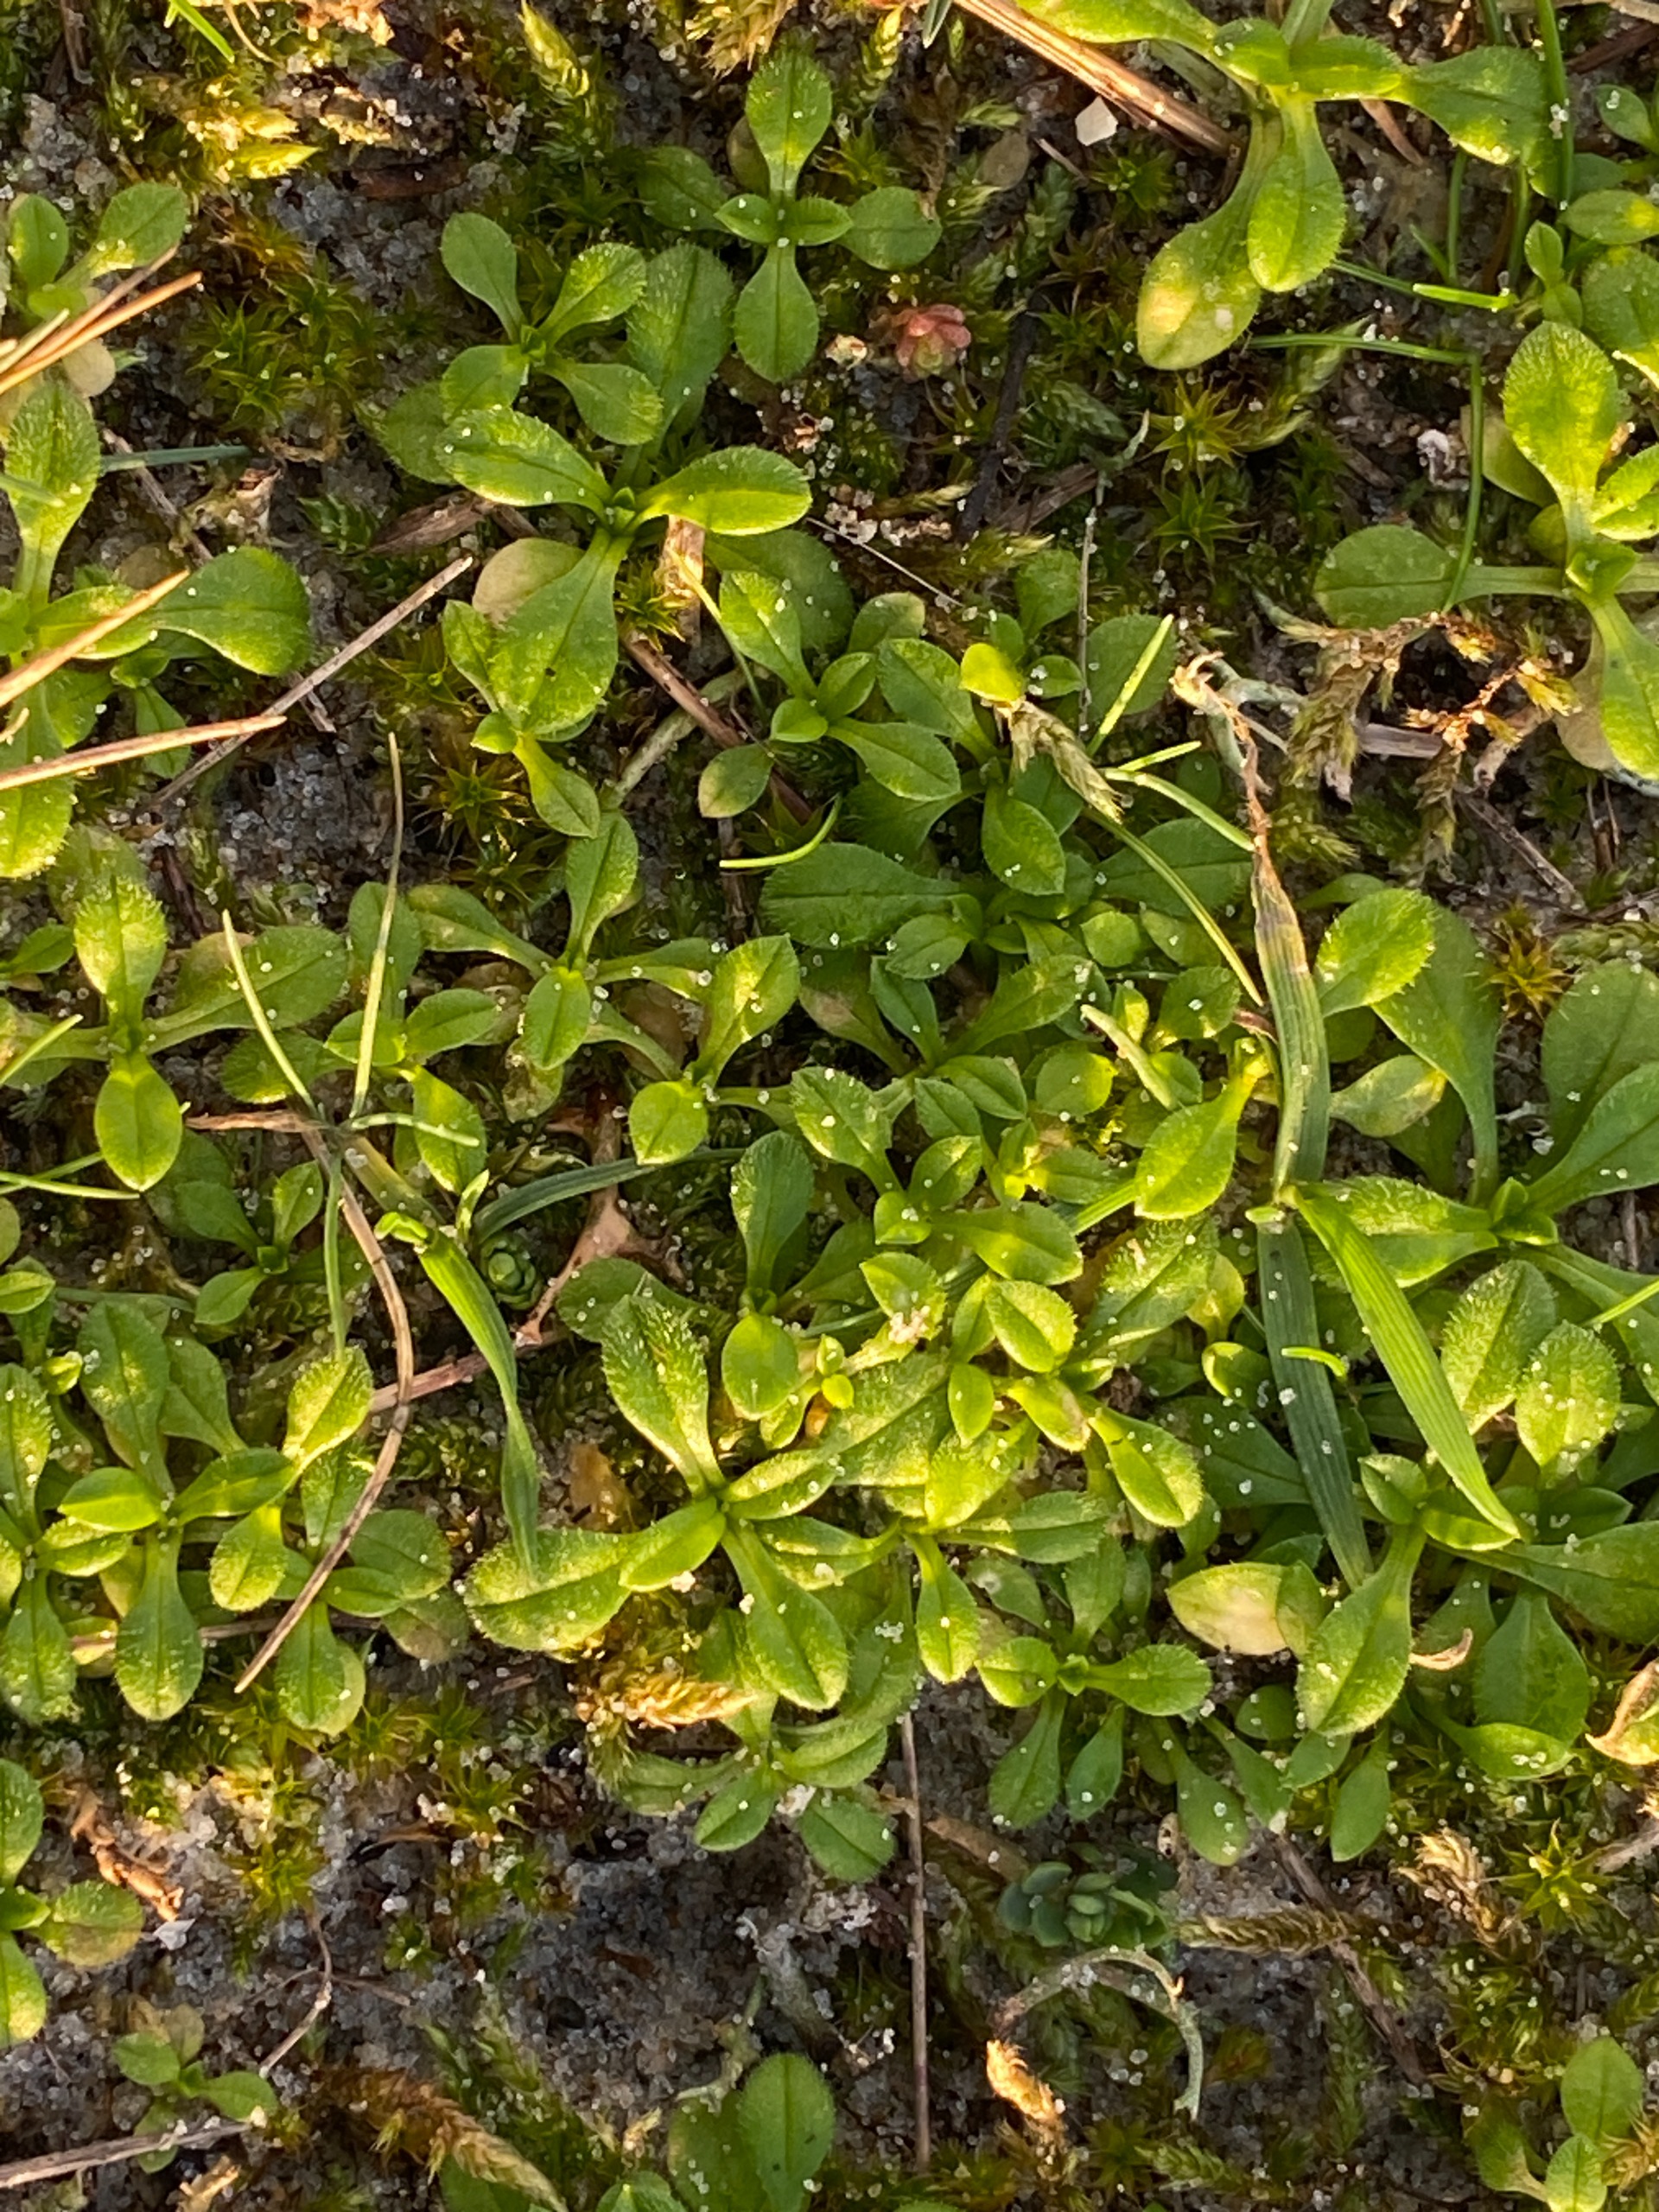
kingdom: Plantae
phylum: Tracheophyta
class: Magnoliopsida
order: Caryophyllales
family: Caryophyllaceae
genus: Cerastium
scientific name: Cerastium
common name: Hønsetarmslægten
